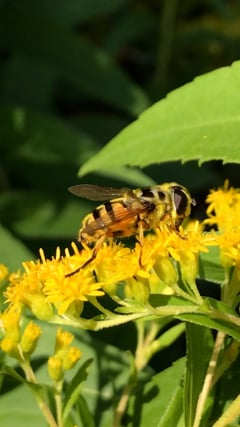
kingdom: Animalia
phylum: Arthropoda
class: Insecta
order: Diptera
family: Syrphidae
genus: Myathropa
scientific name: Myathropa florea
